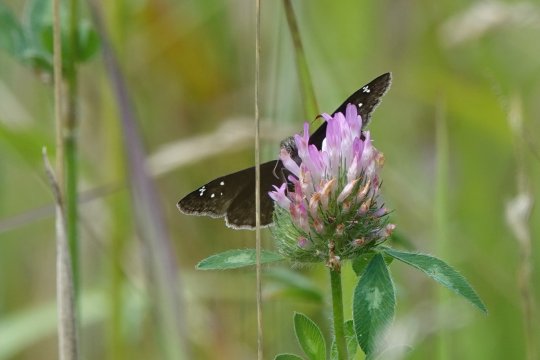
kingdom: Animalia
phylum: Arthropoda
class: Insecta
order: Lepidoptera
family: Hesperiidae
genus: Gesta
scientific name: Gesta
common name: Horace's Duskywing
